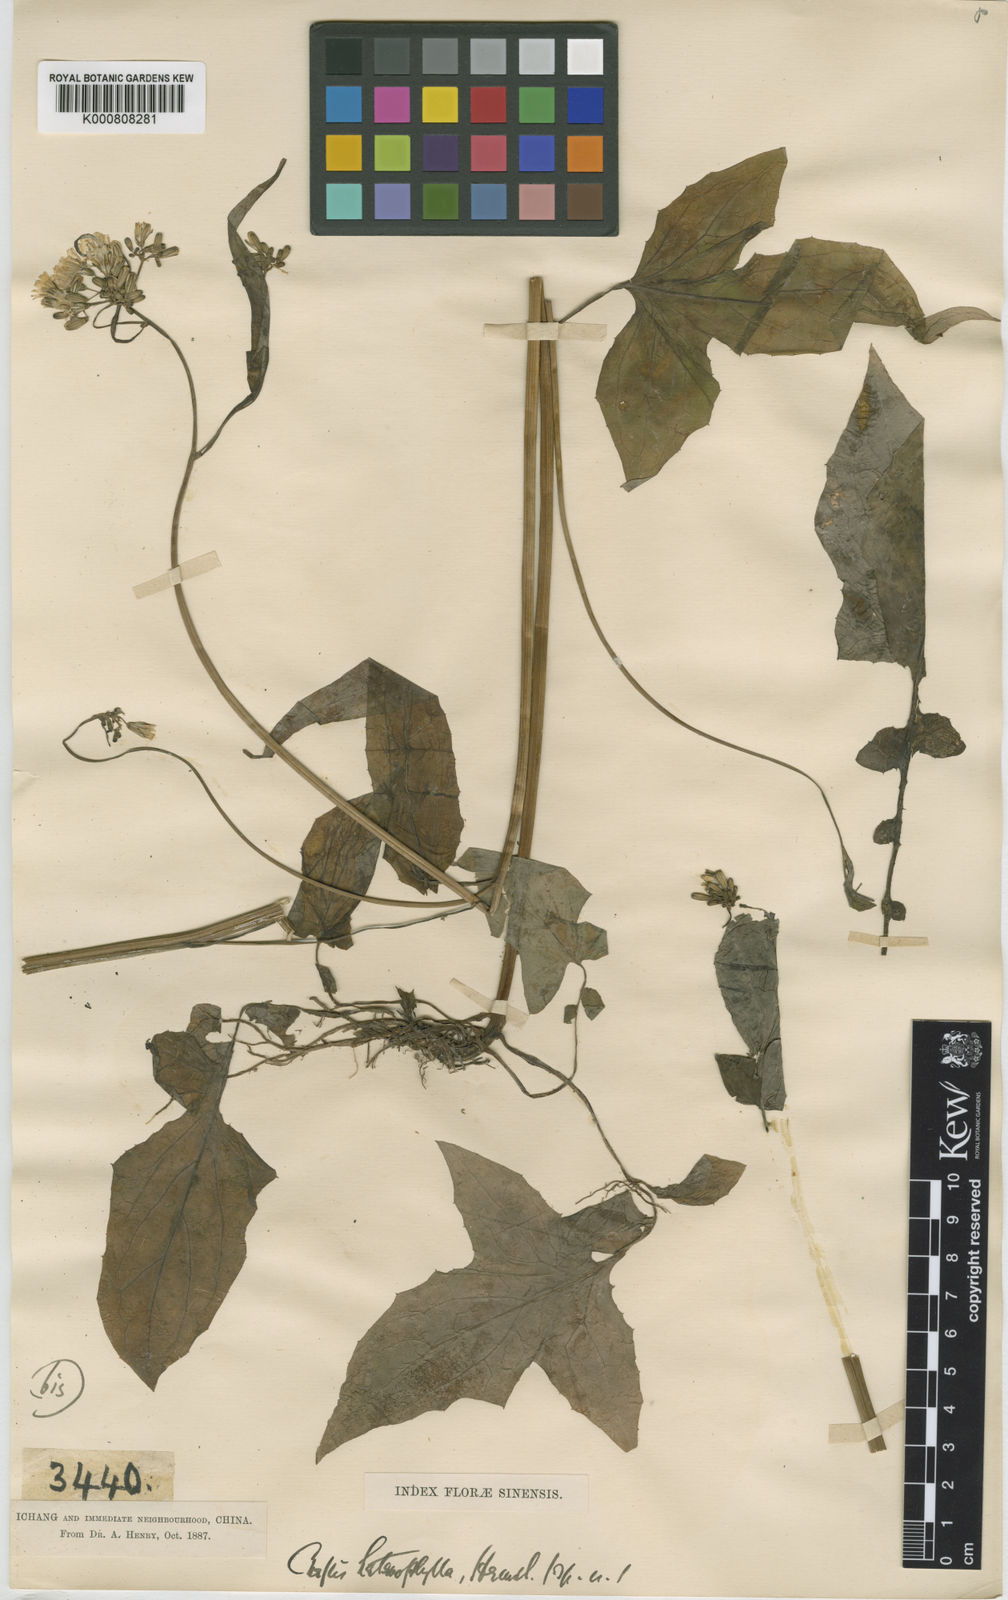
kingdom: Plantae
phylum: Tracheophyta
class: Magnoliopsida
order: Asterales
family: Asteraceae
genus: Youngia
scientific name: Youngia heterophylla
